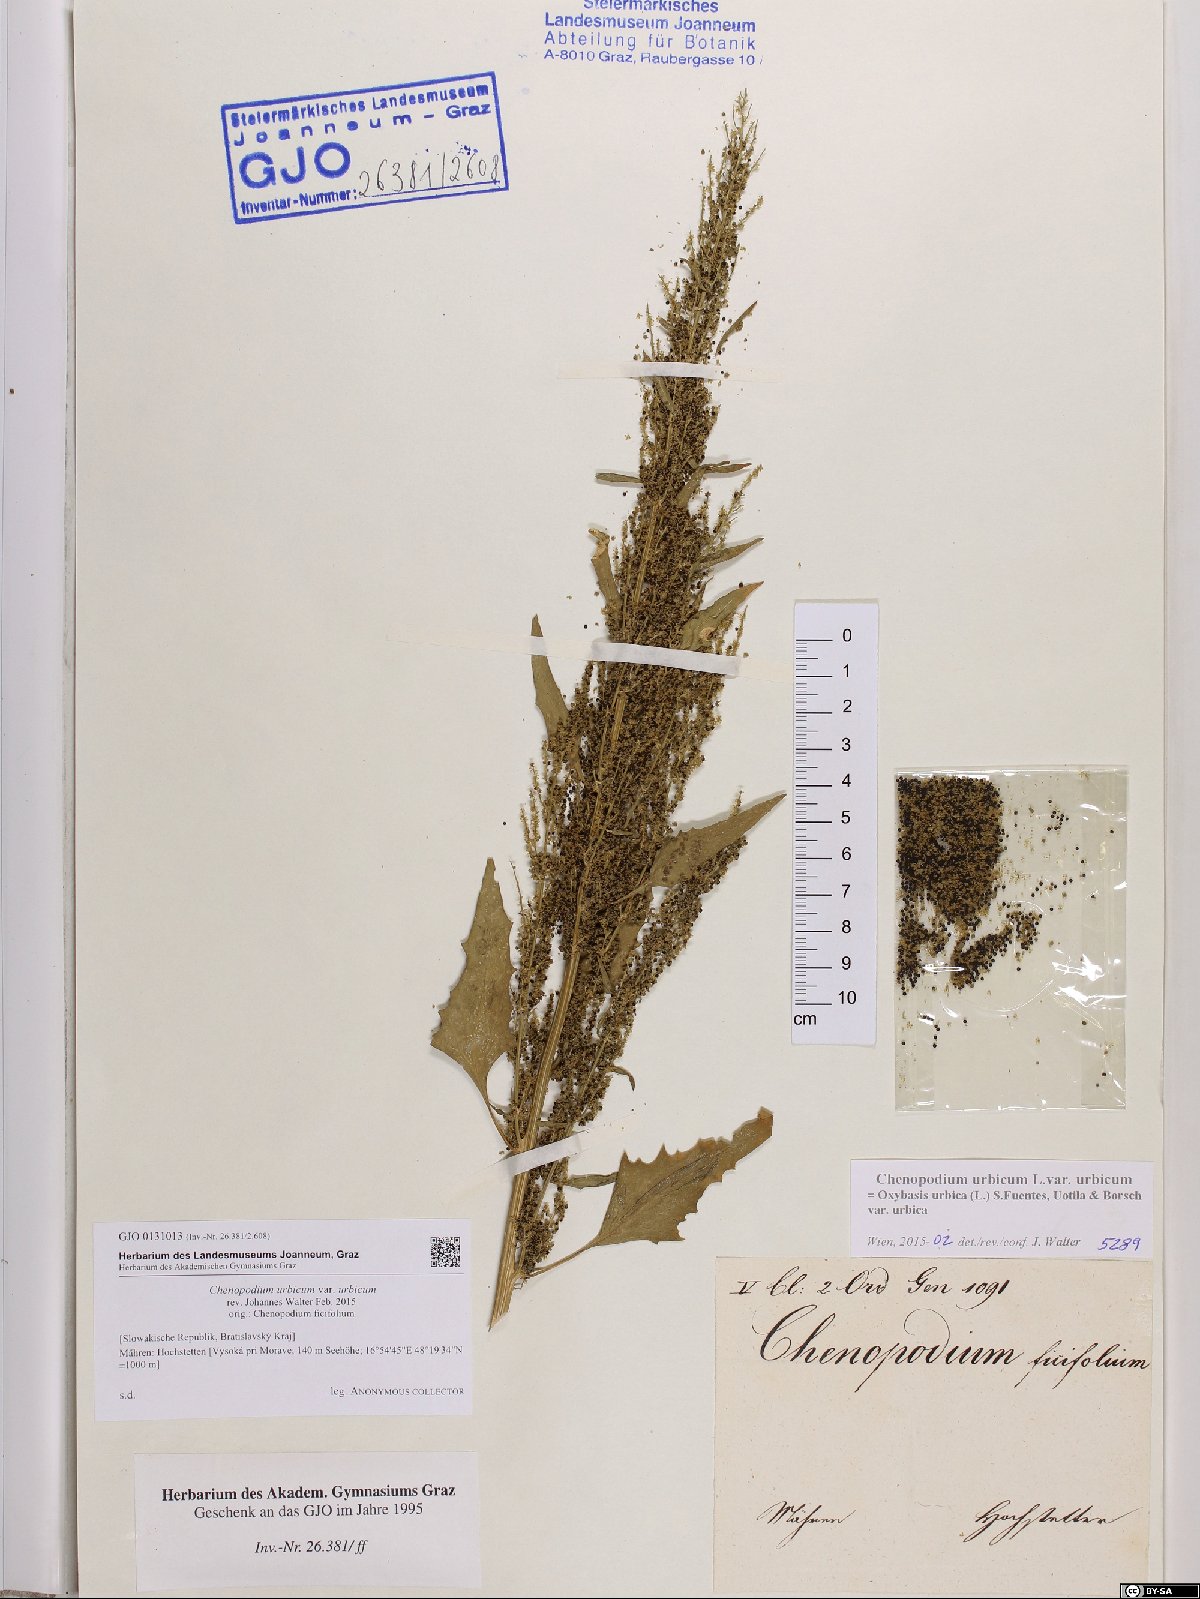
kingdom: Plantae
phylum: Tracheophyta
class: Magnoliopsida
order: Caryophyllales
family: Amaranthaceae
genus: Oxybasis
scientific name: Oxybasis urbica
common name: City goosefoot
